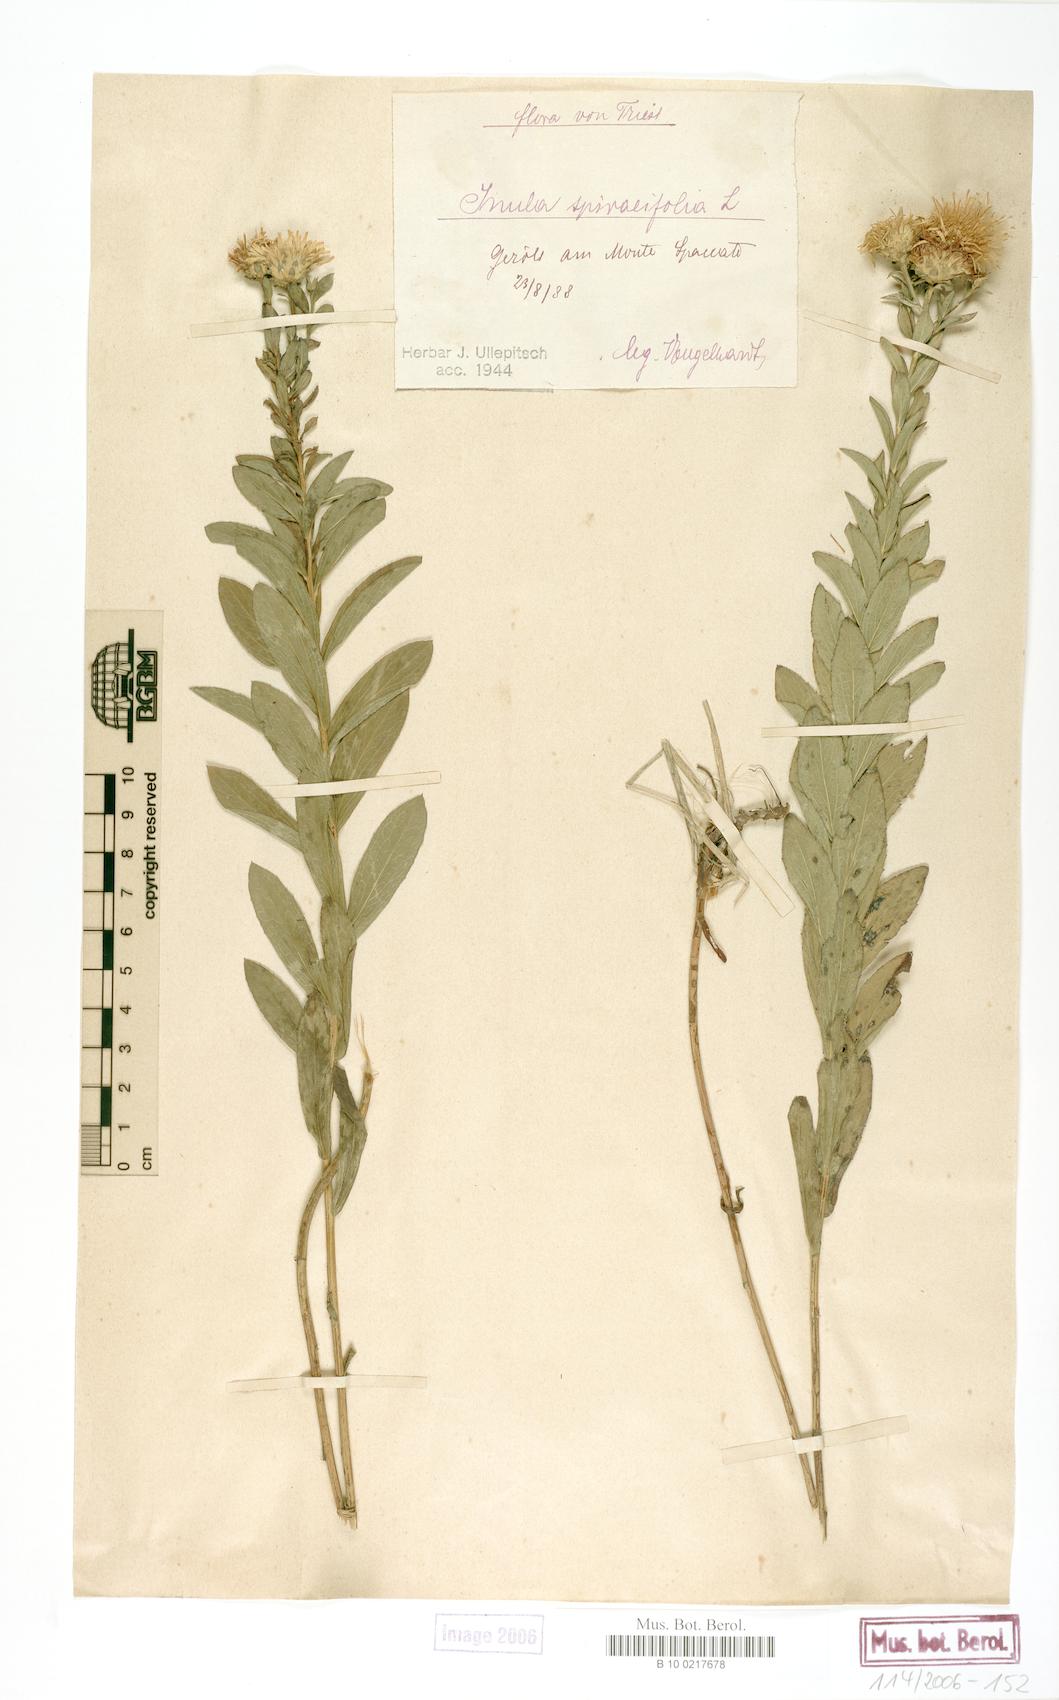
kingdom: Plantae
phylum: Tracheophyta
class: Magnoliopsida
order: Asterales
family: Asteraceae
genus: Pentanema
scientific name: Pentanema spiraeifolium
